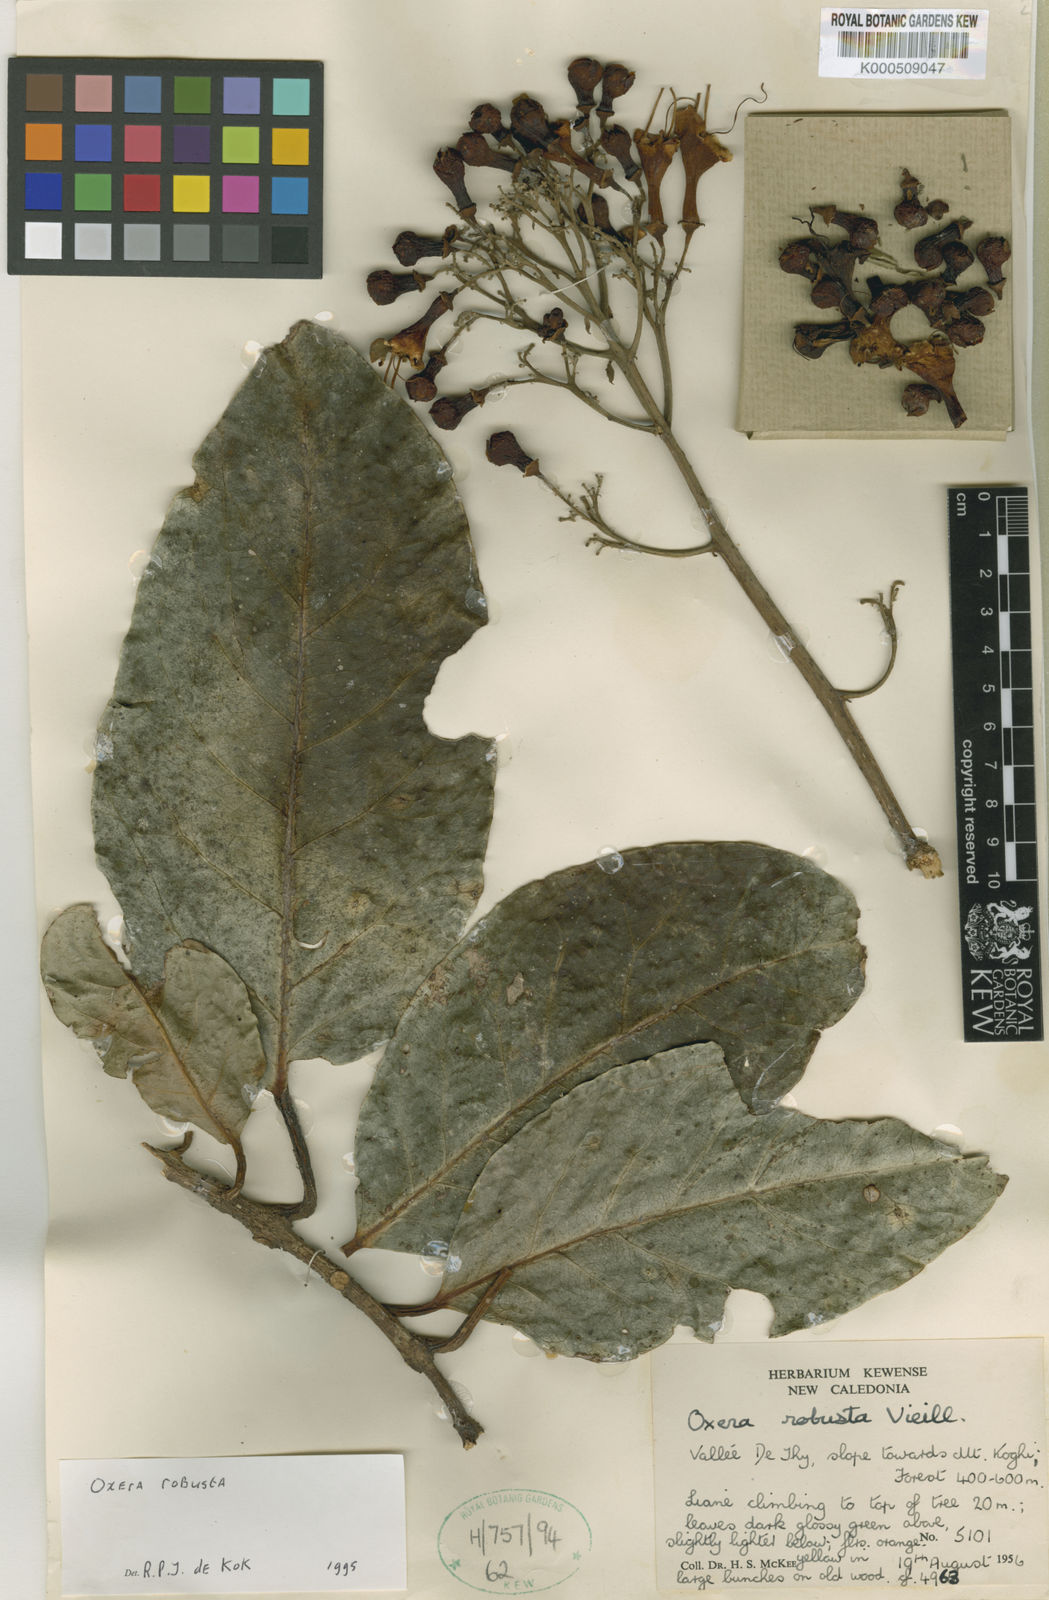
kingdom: Plantae
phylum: Tracheophyta
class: Magnoliopsida
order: Lamiales
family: Lamiaceae
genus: Oxera
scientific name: Oxera robusta
